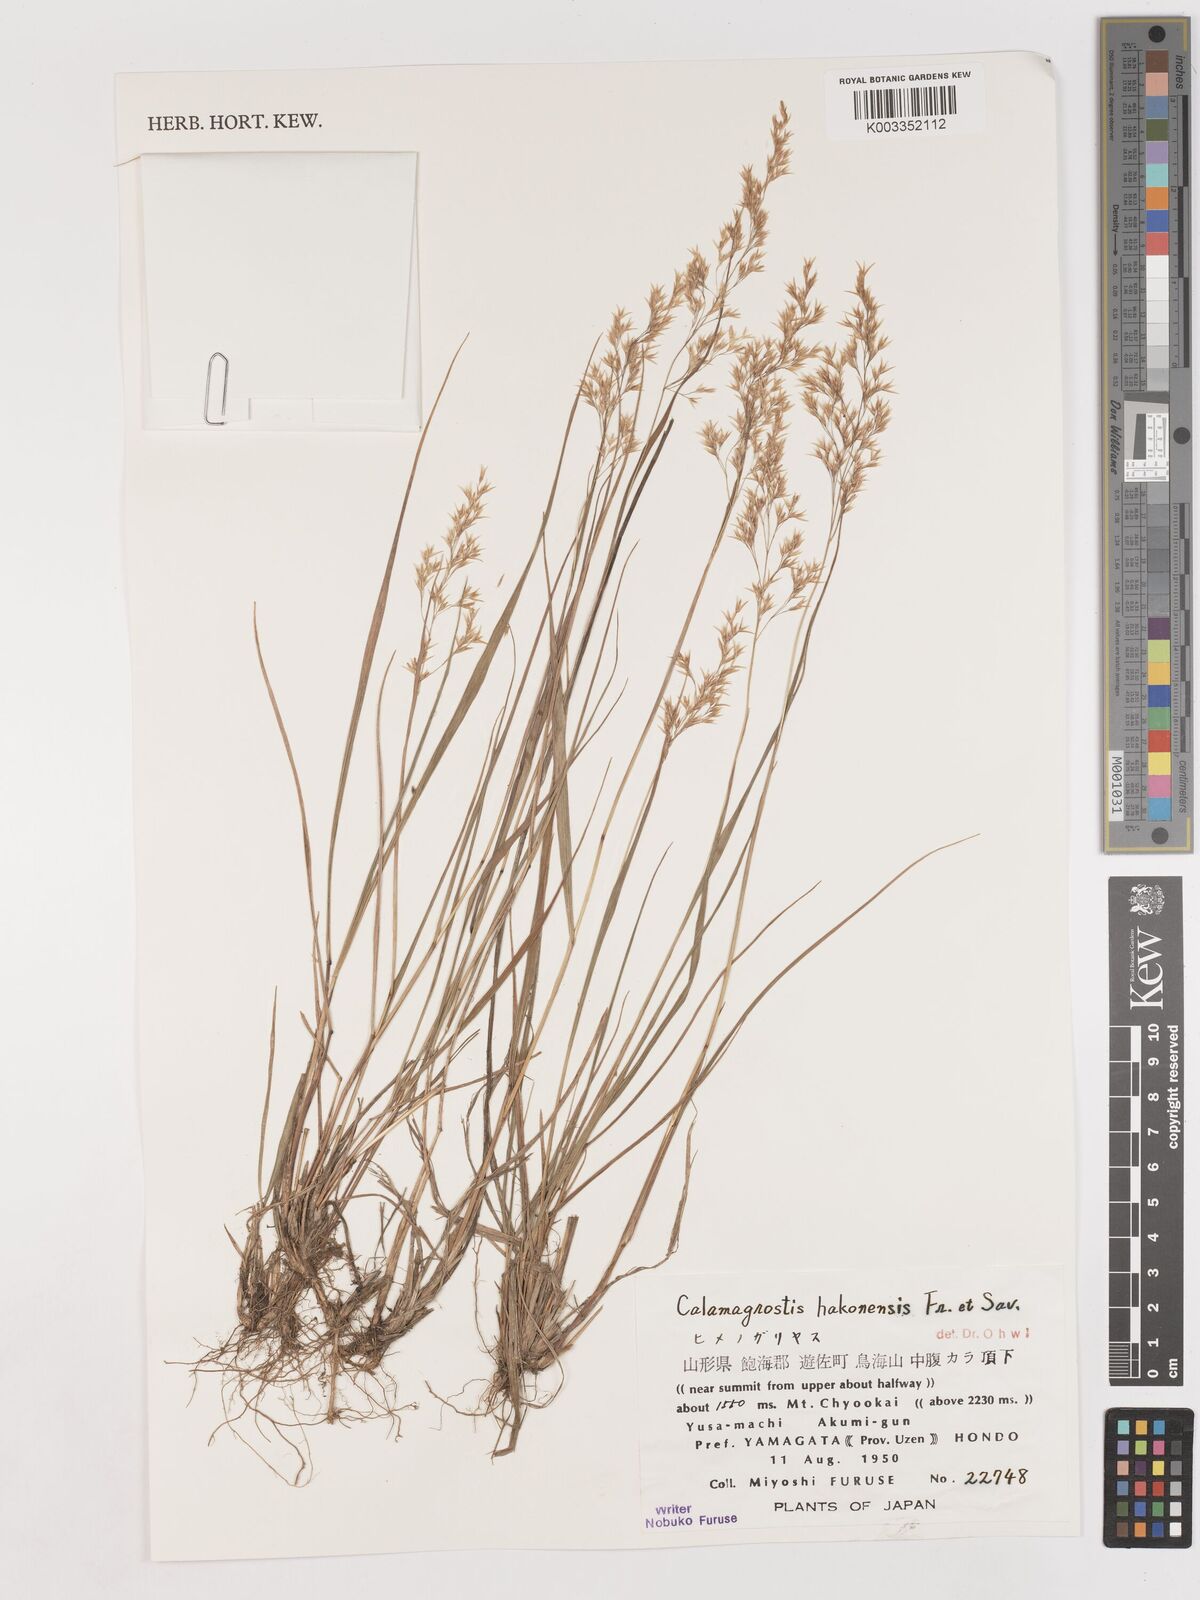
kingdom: Plantae
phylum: Tracheophyta
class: Liliopsida
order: Poales
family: Poaceae
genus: Calamagrostis
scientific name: Calamagrostis hakonensis
